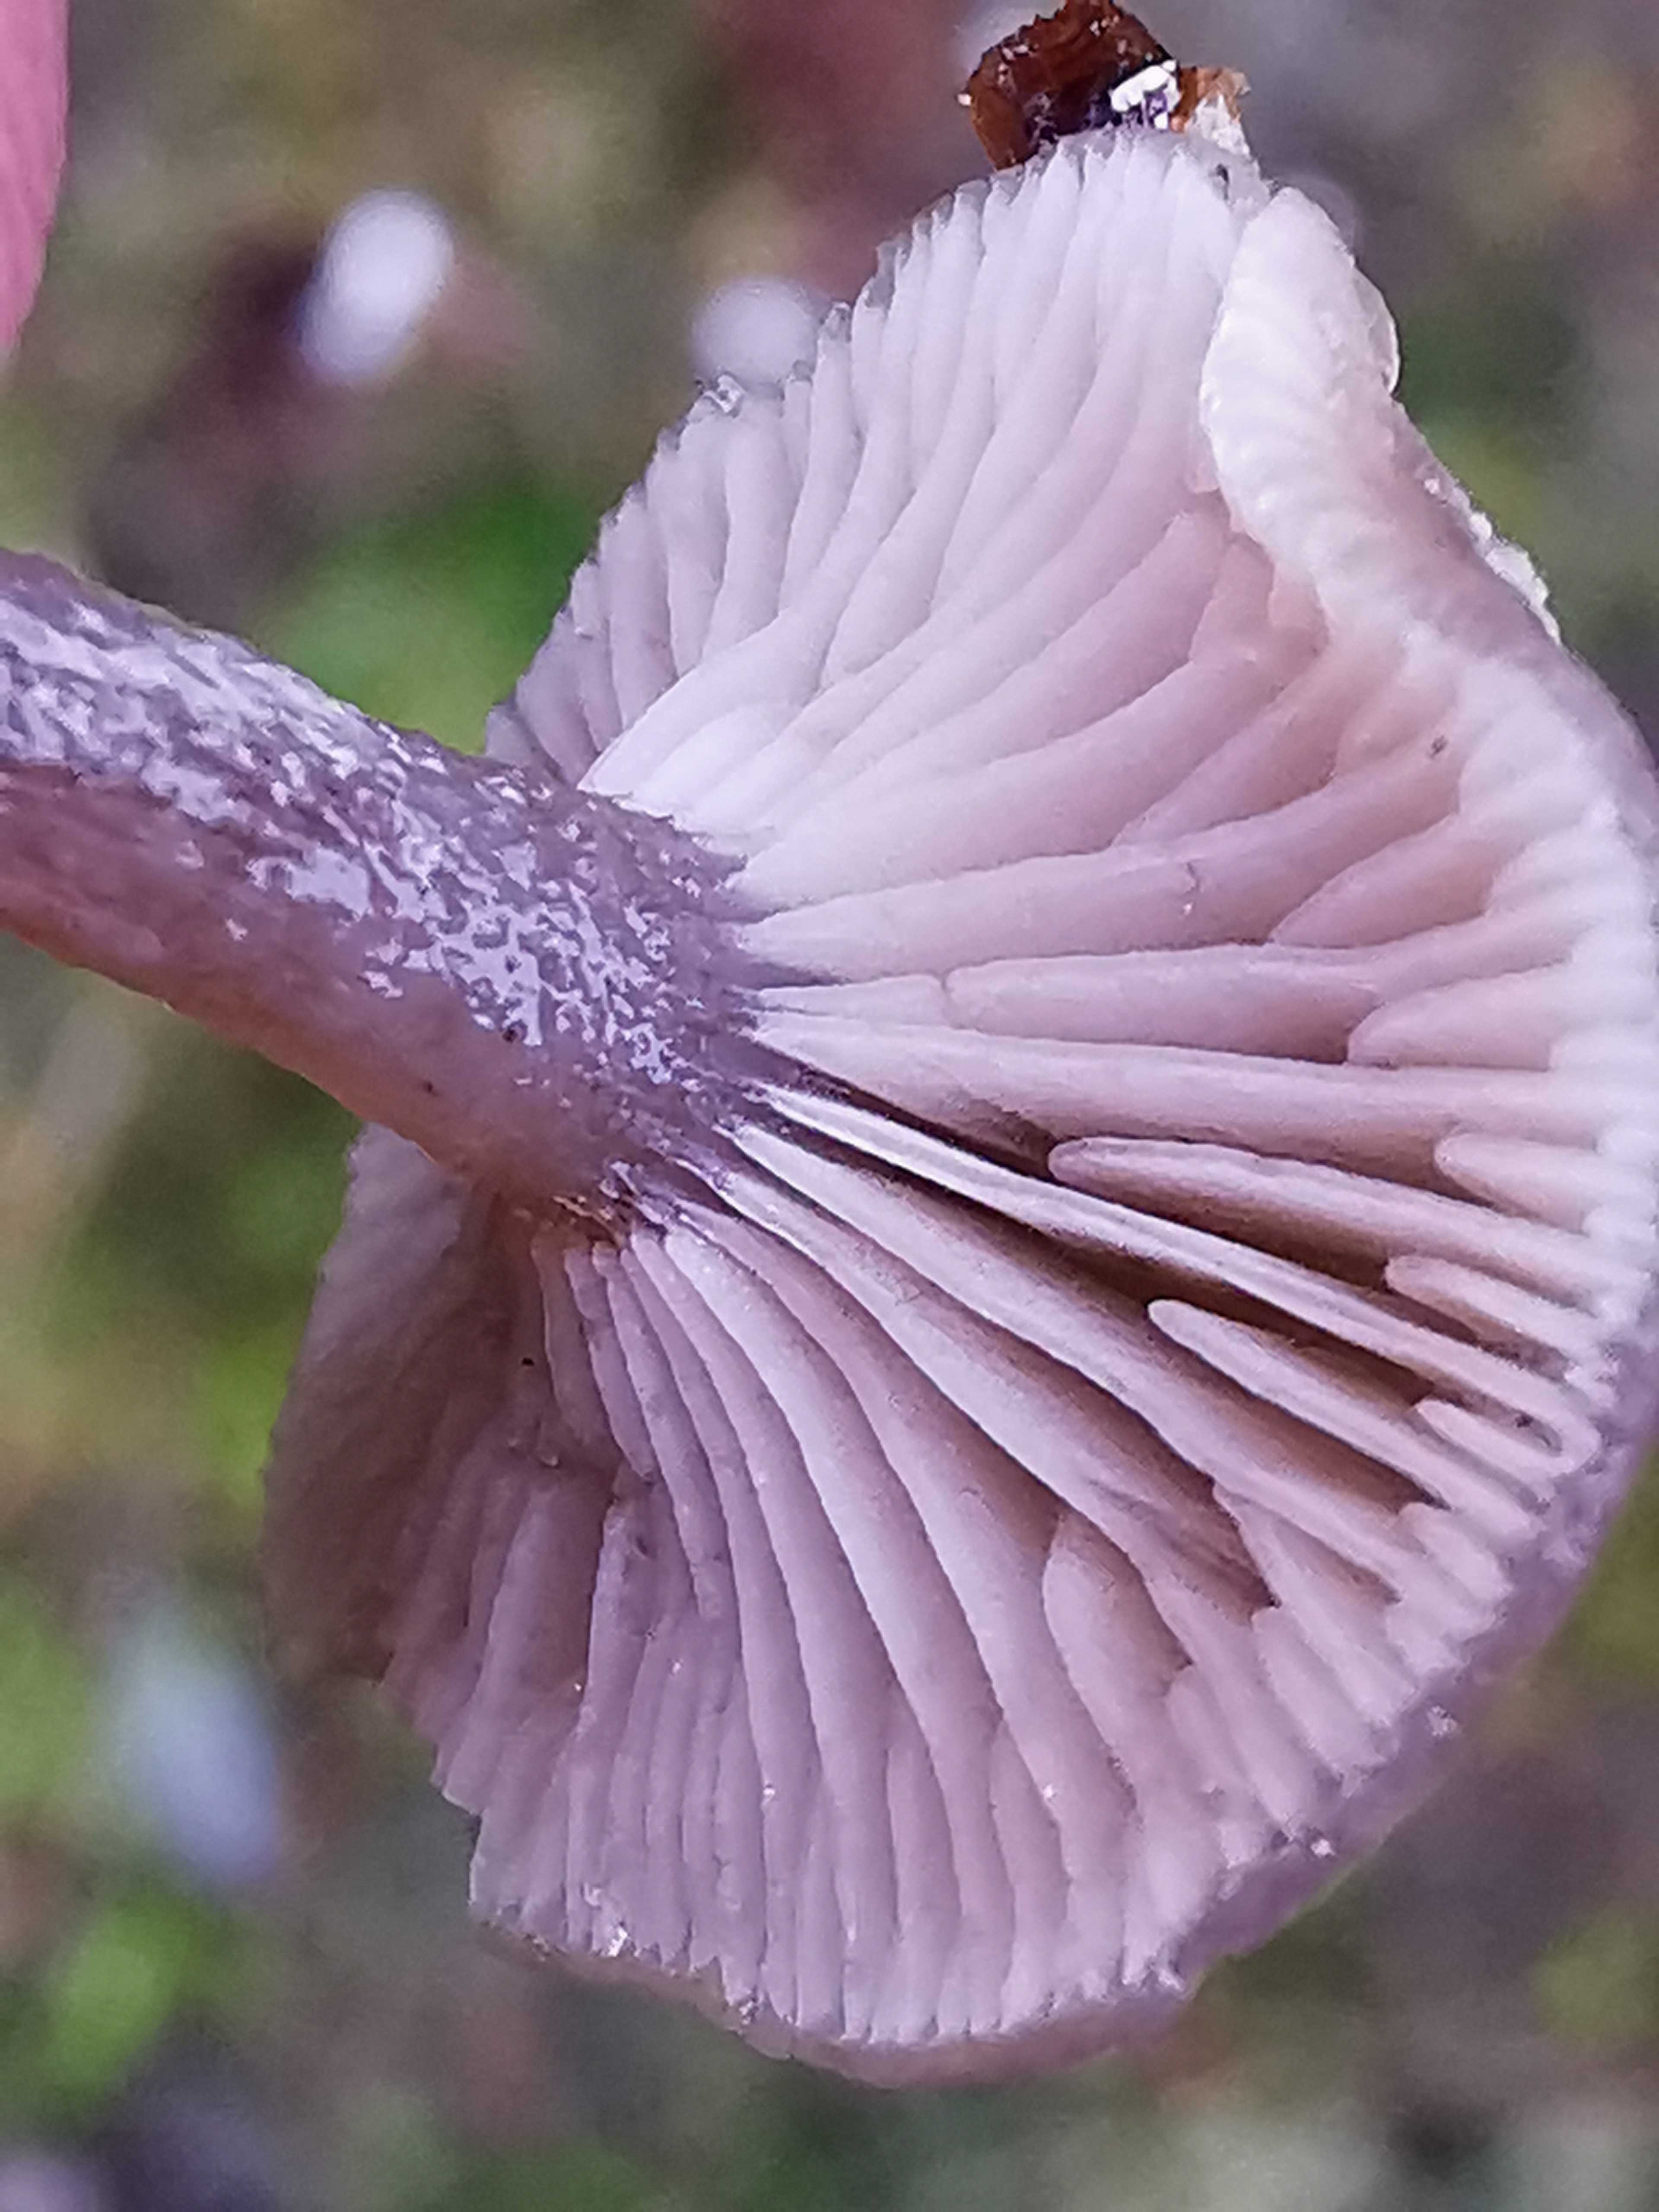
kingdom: Fungi
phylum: Basidiomycota
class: Agaricomycetes
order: Agaricales
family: Tricholomataceae
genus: Clitocybe
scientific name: Clitocybe vibecina
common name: randstribet tragthat
